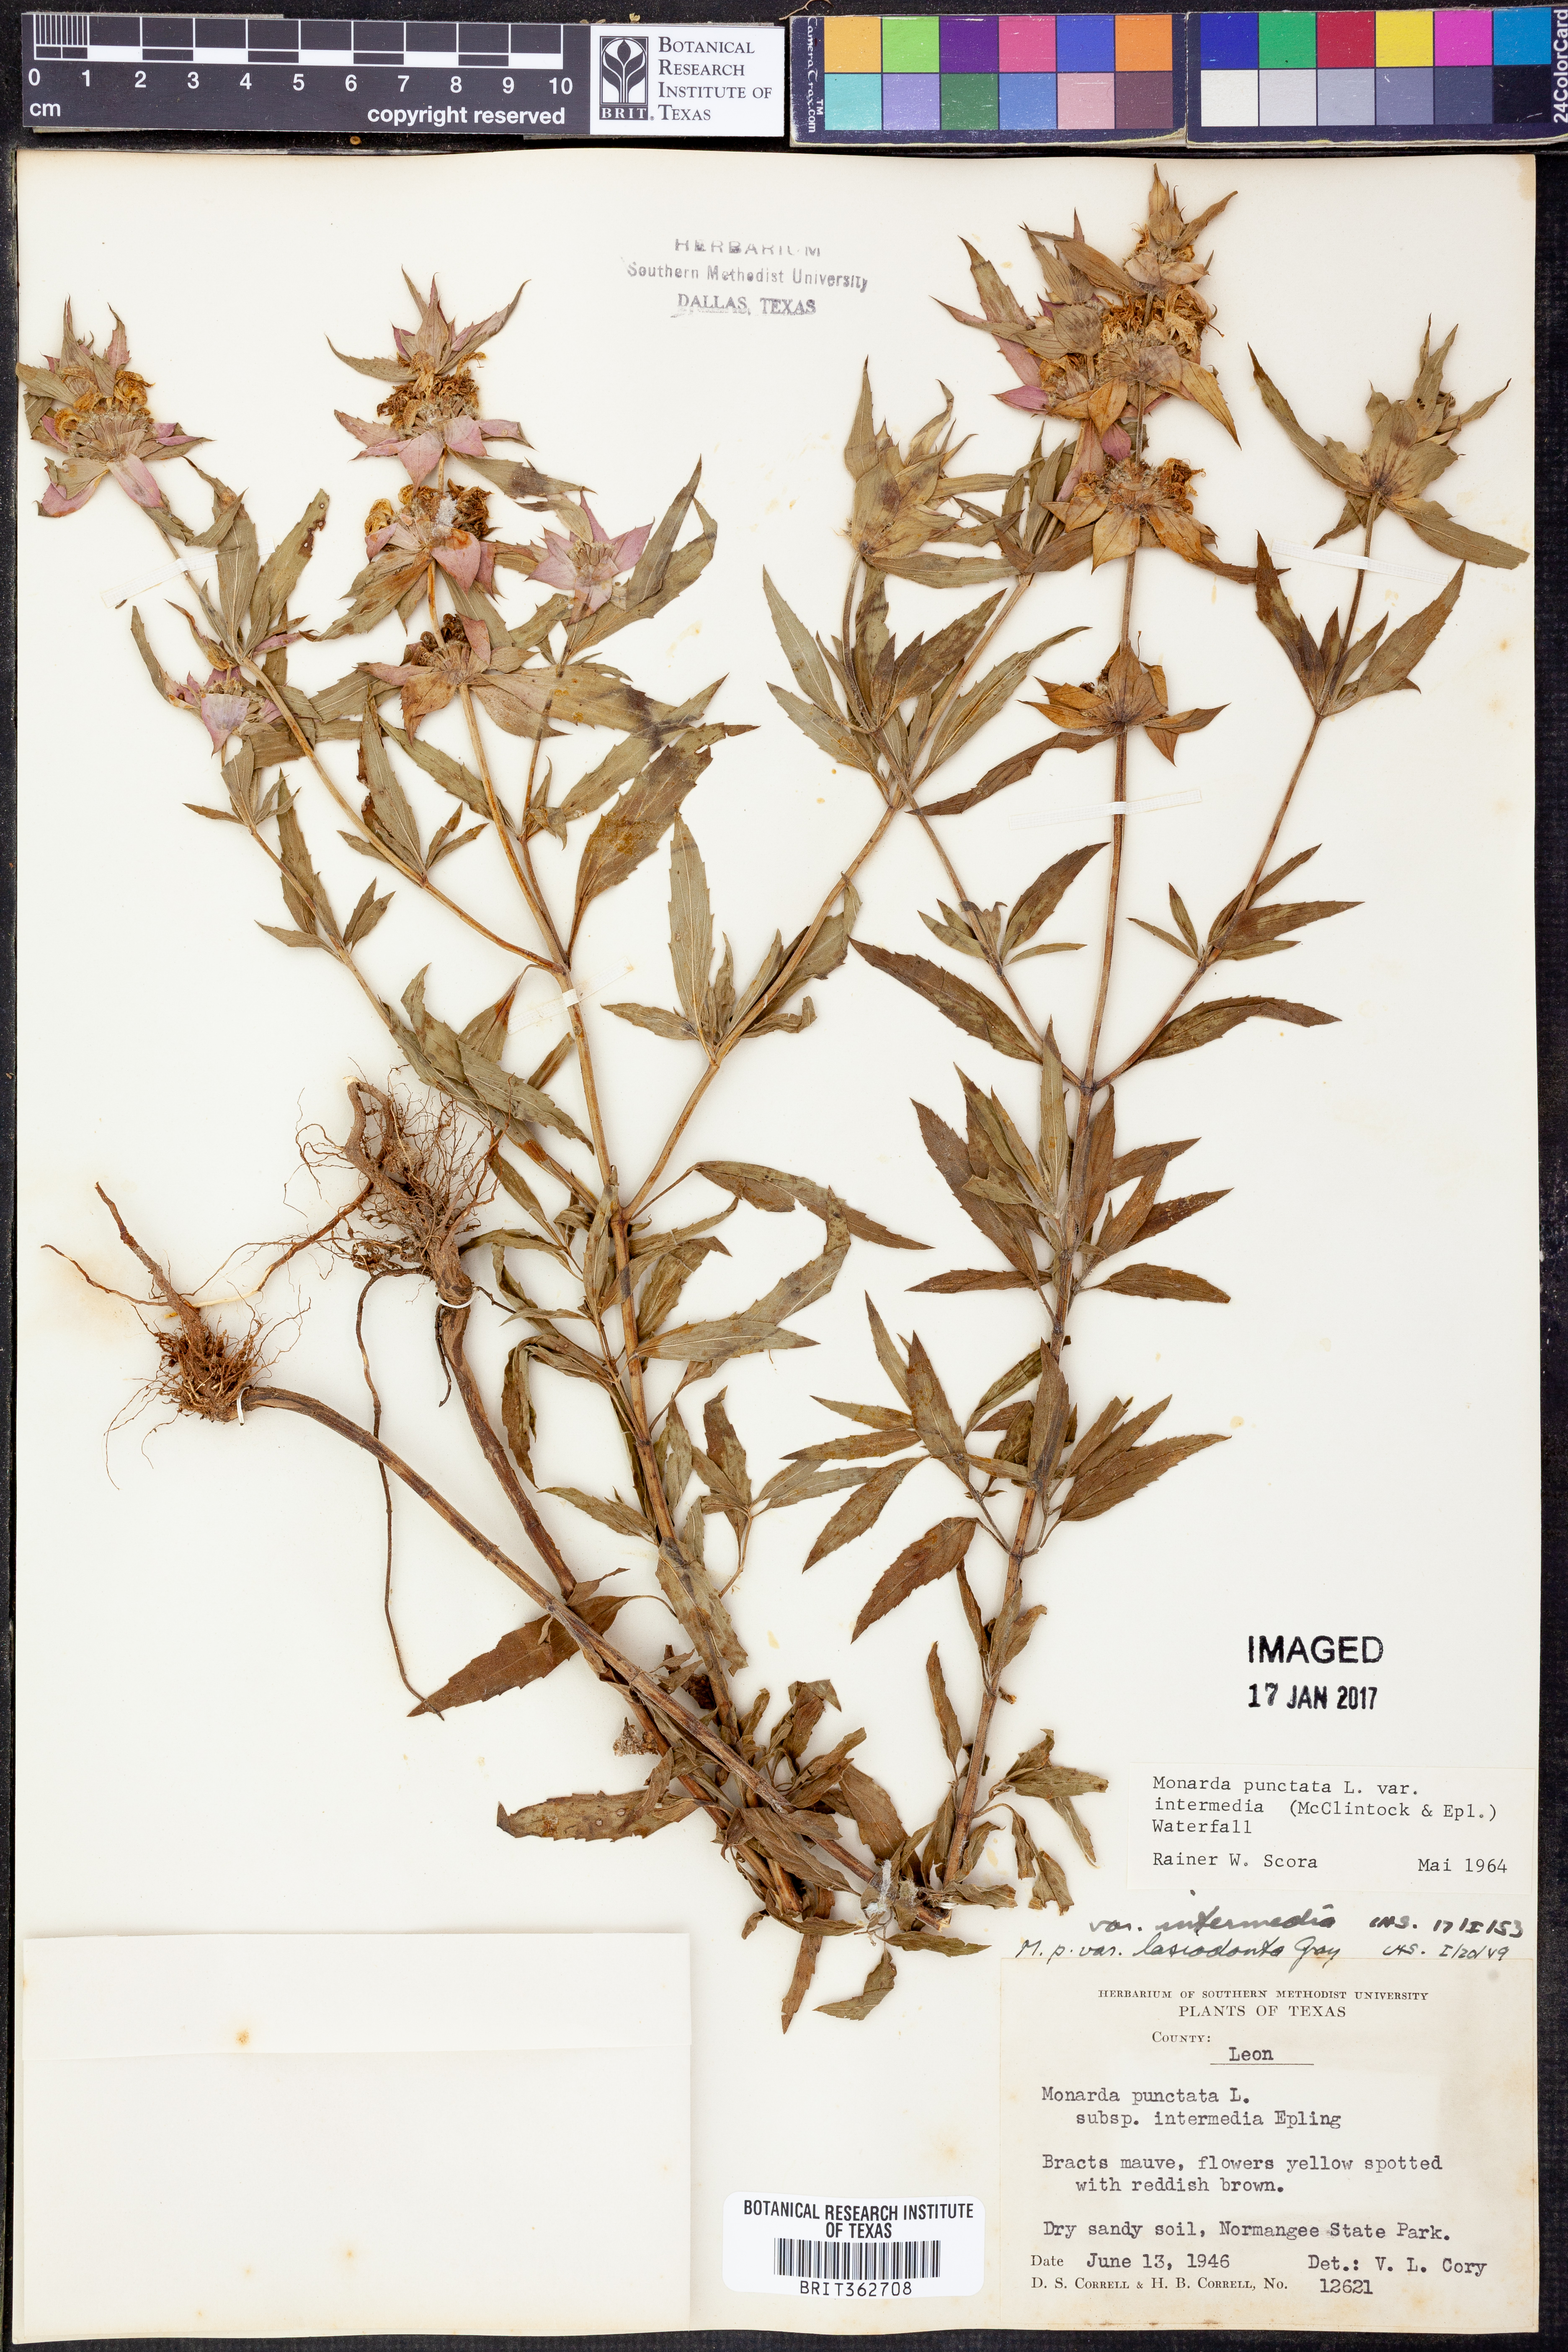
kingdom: Plantae
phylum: Tracheophyta
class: Magnoliopsida
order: Lamiales
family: Lamiaceae
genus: Monarda
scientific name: Monarda punctata
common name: Dotted monarda
